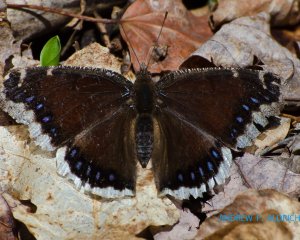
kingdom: Animalia
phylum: Arthropoda
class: Insecta
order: Lepidoptera
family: Nymphalidae
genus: Nymphalis
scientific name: Nymphalis antiopa
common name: Mourning Cloak
